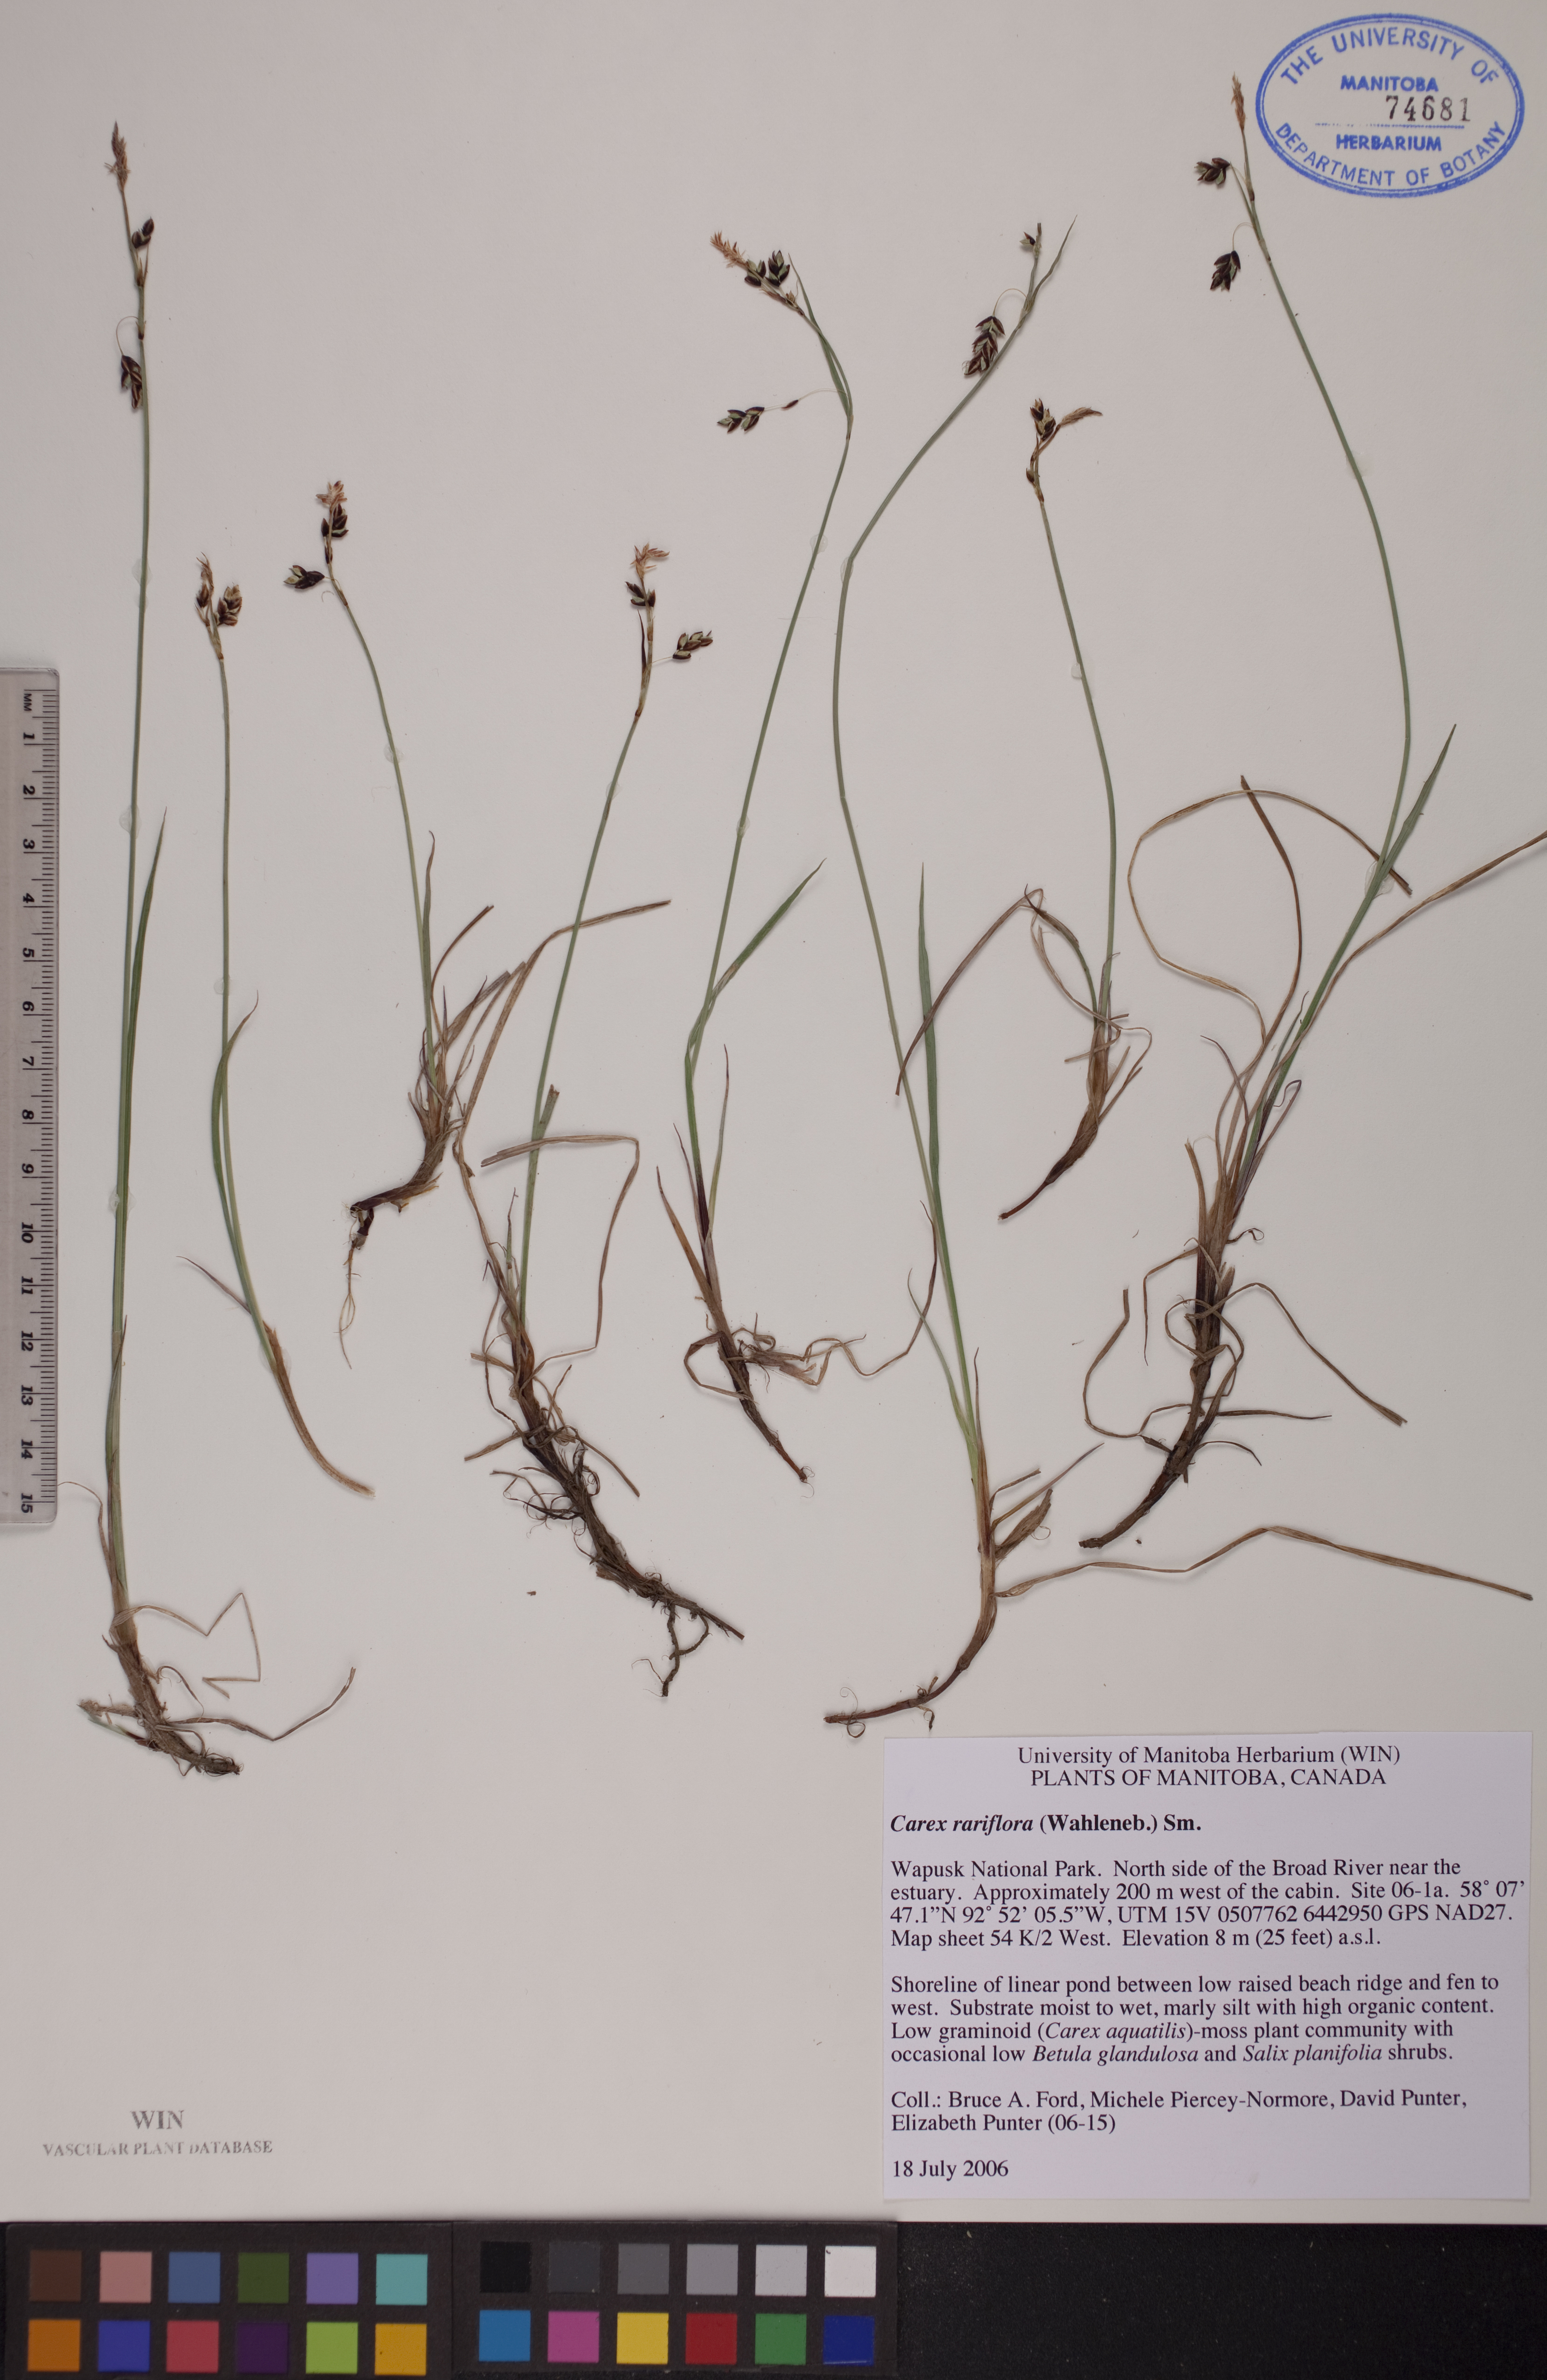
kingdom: Plantae
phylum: Tracheophyta
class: Liliopsida
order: Poales
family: Cyperaceae
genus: Carex
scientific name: Carex rariflora
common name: Loose-flowered alpine sedge
